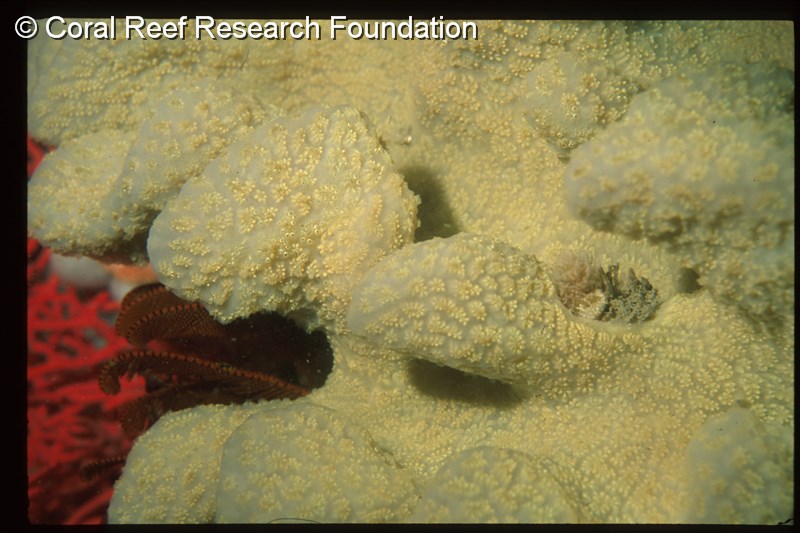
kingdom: Animalia
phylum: Chordata
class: Ascidiacea
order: Aplousobranchia
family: Polyclinidae
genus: Aplidium
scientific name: Aplidium
